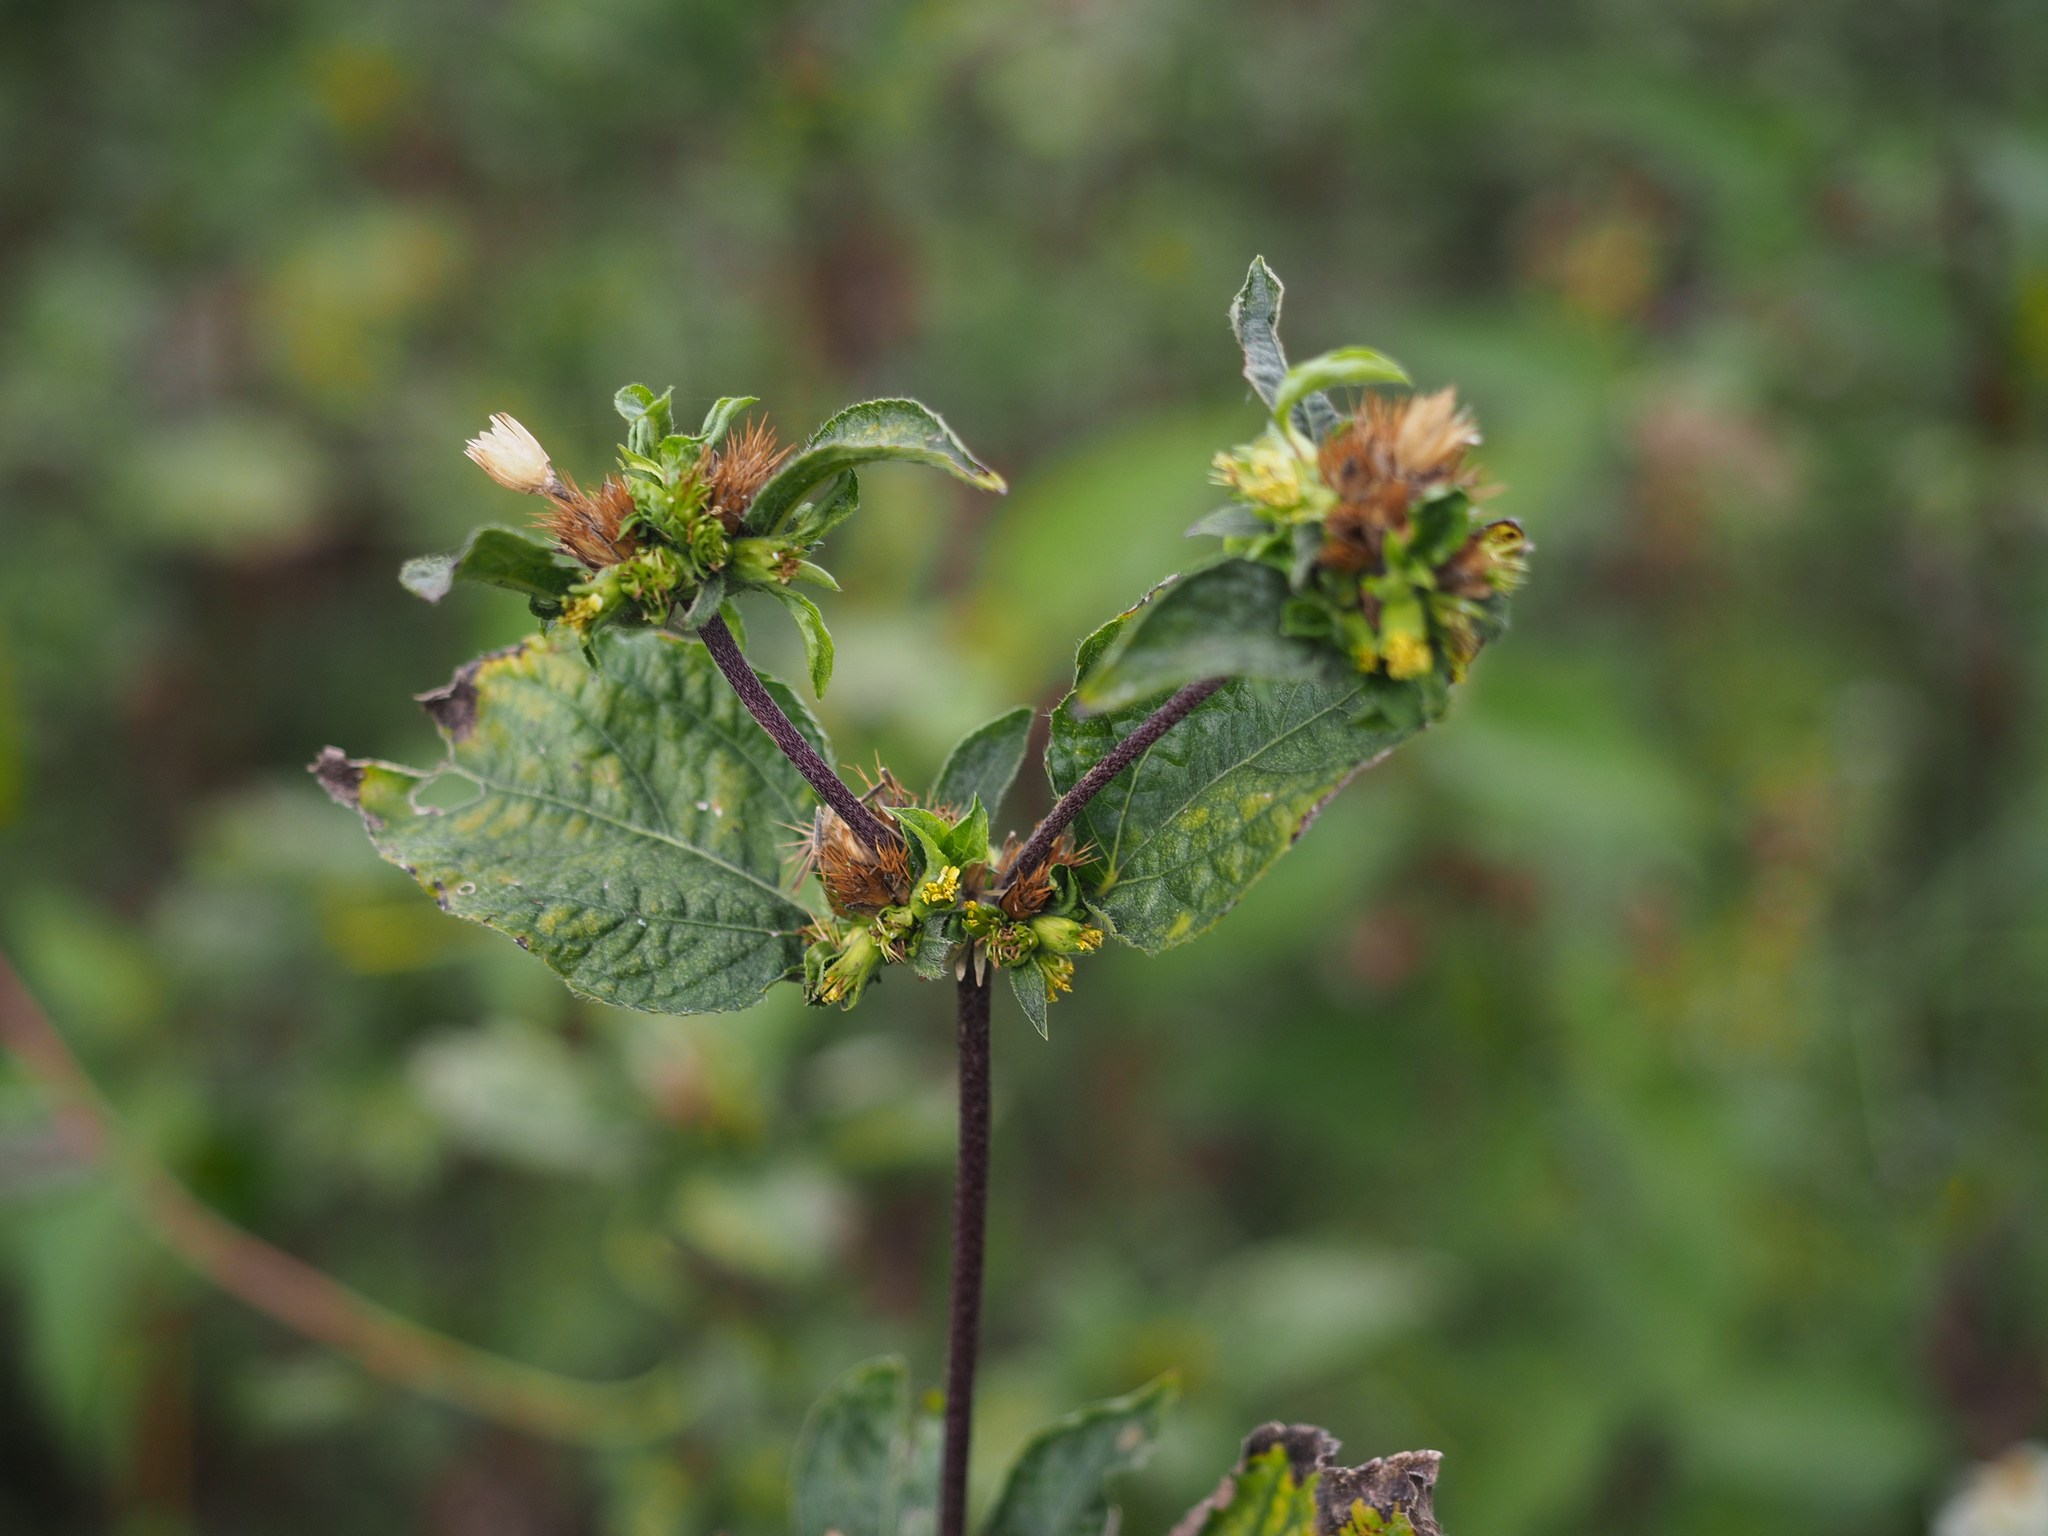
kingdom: Plantae
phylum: Tracheophyta
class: Magnoliopsida
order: Asterales
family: Asteraceae
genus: Synedrella
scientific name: Synedrella nodiflora
